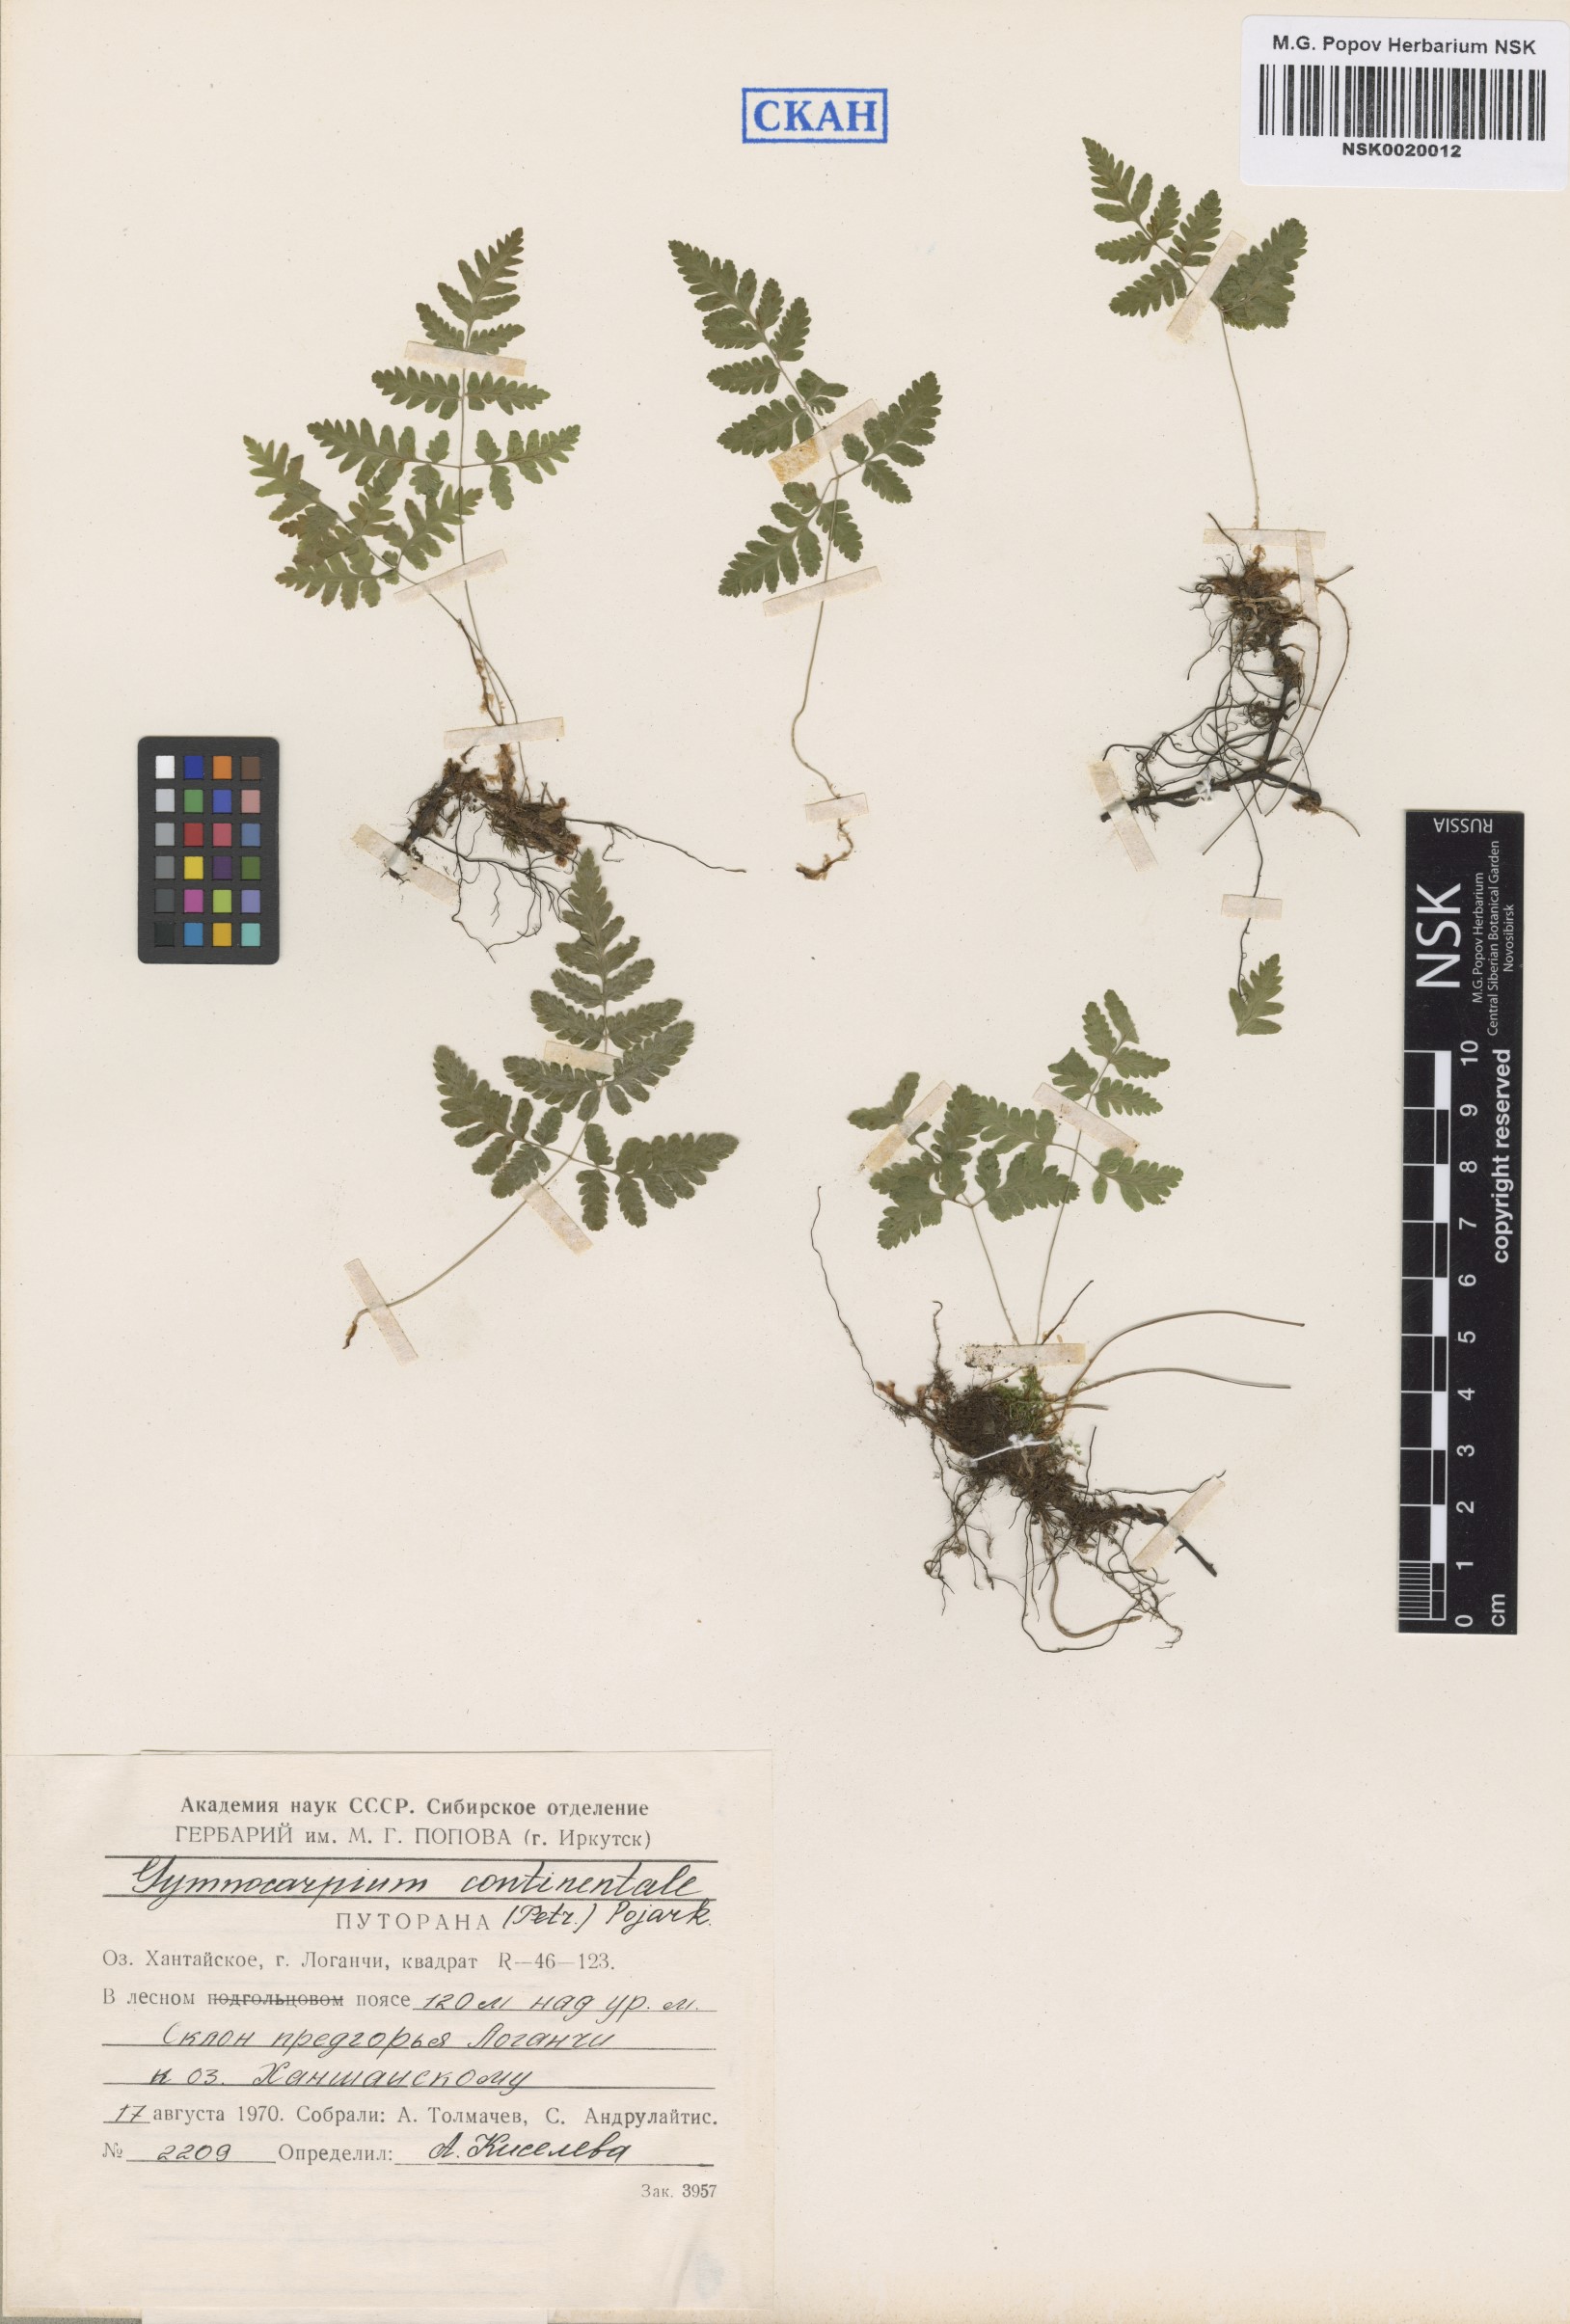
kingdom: Plantae
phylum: Tracheophyta
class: Polypodiopsida
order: Polypodiales
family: Cystopteridaceae
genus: Gymnocarpium
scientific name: Gymnocarpium continentale
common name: Asian oak fern
